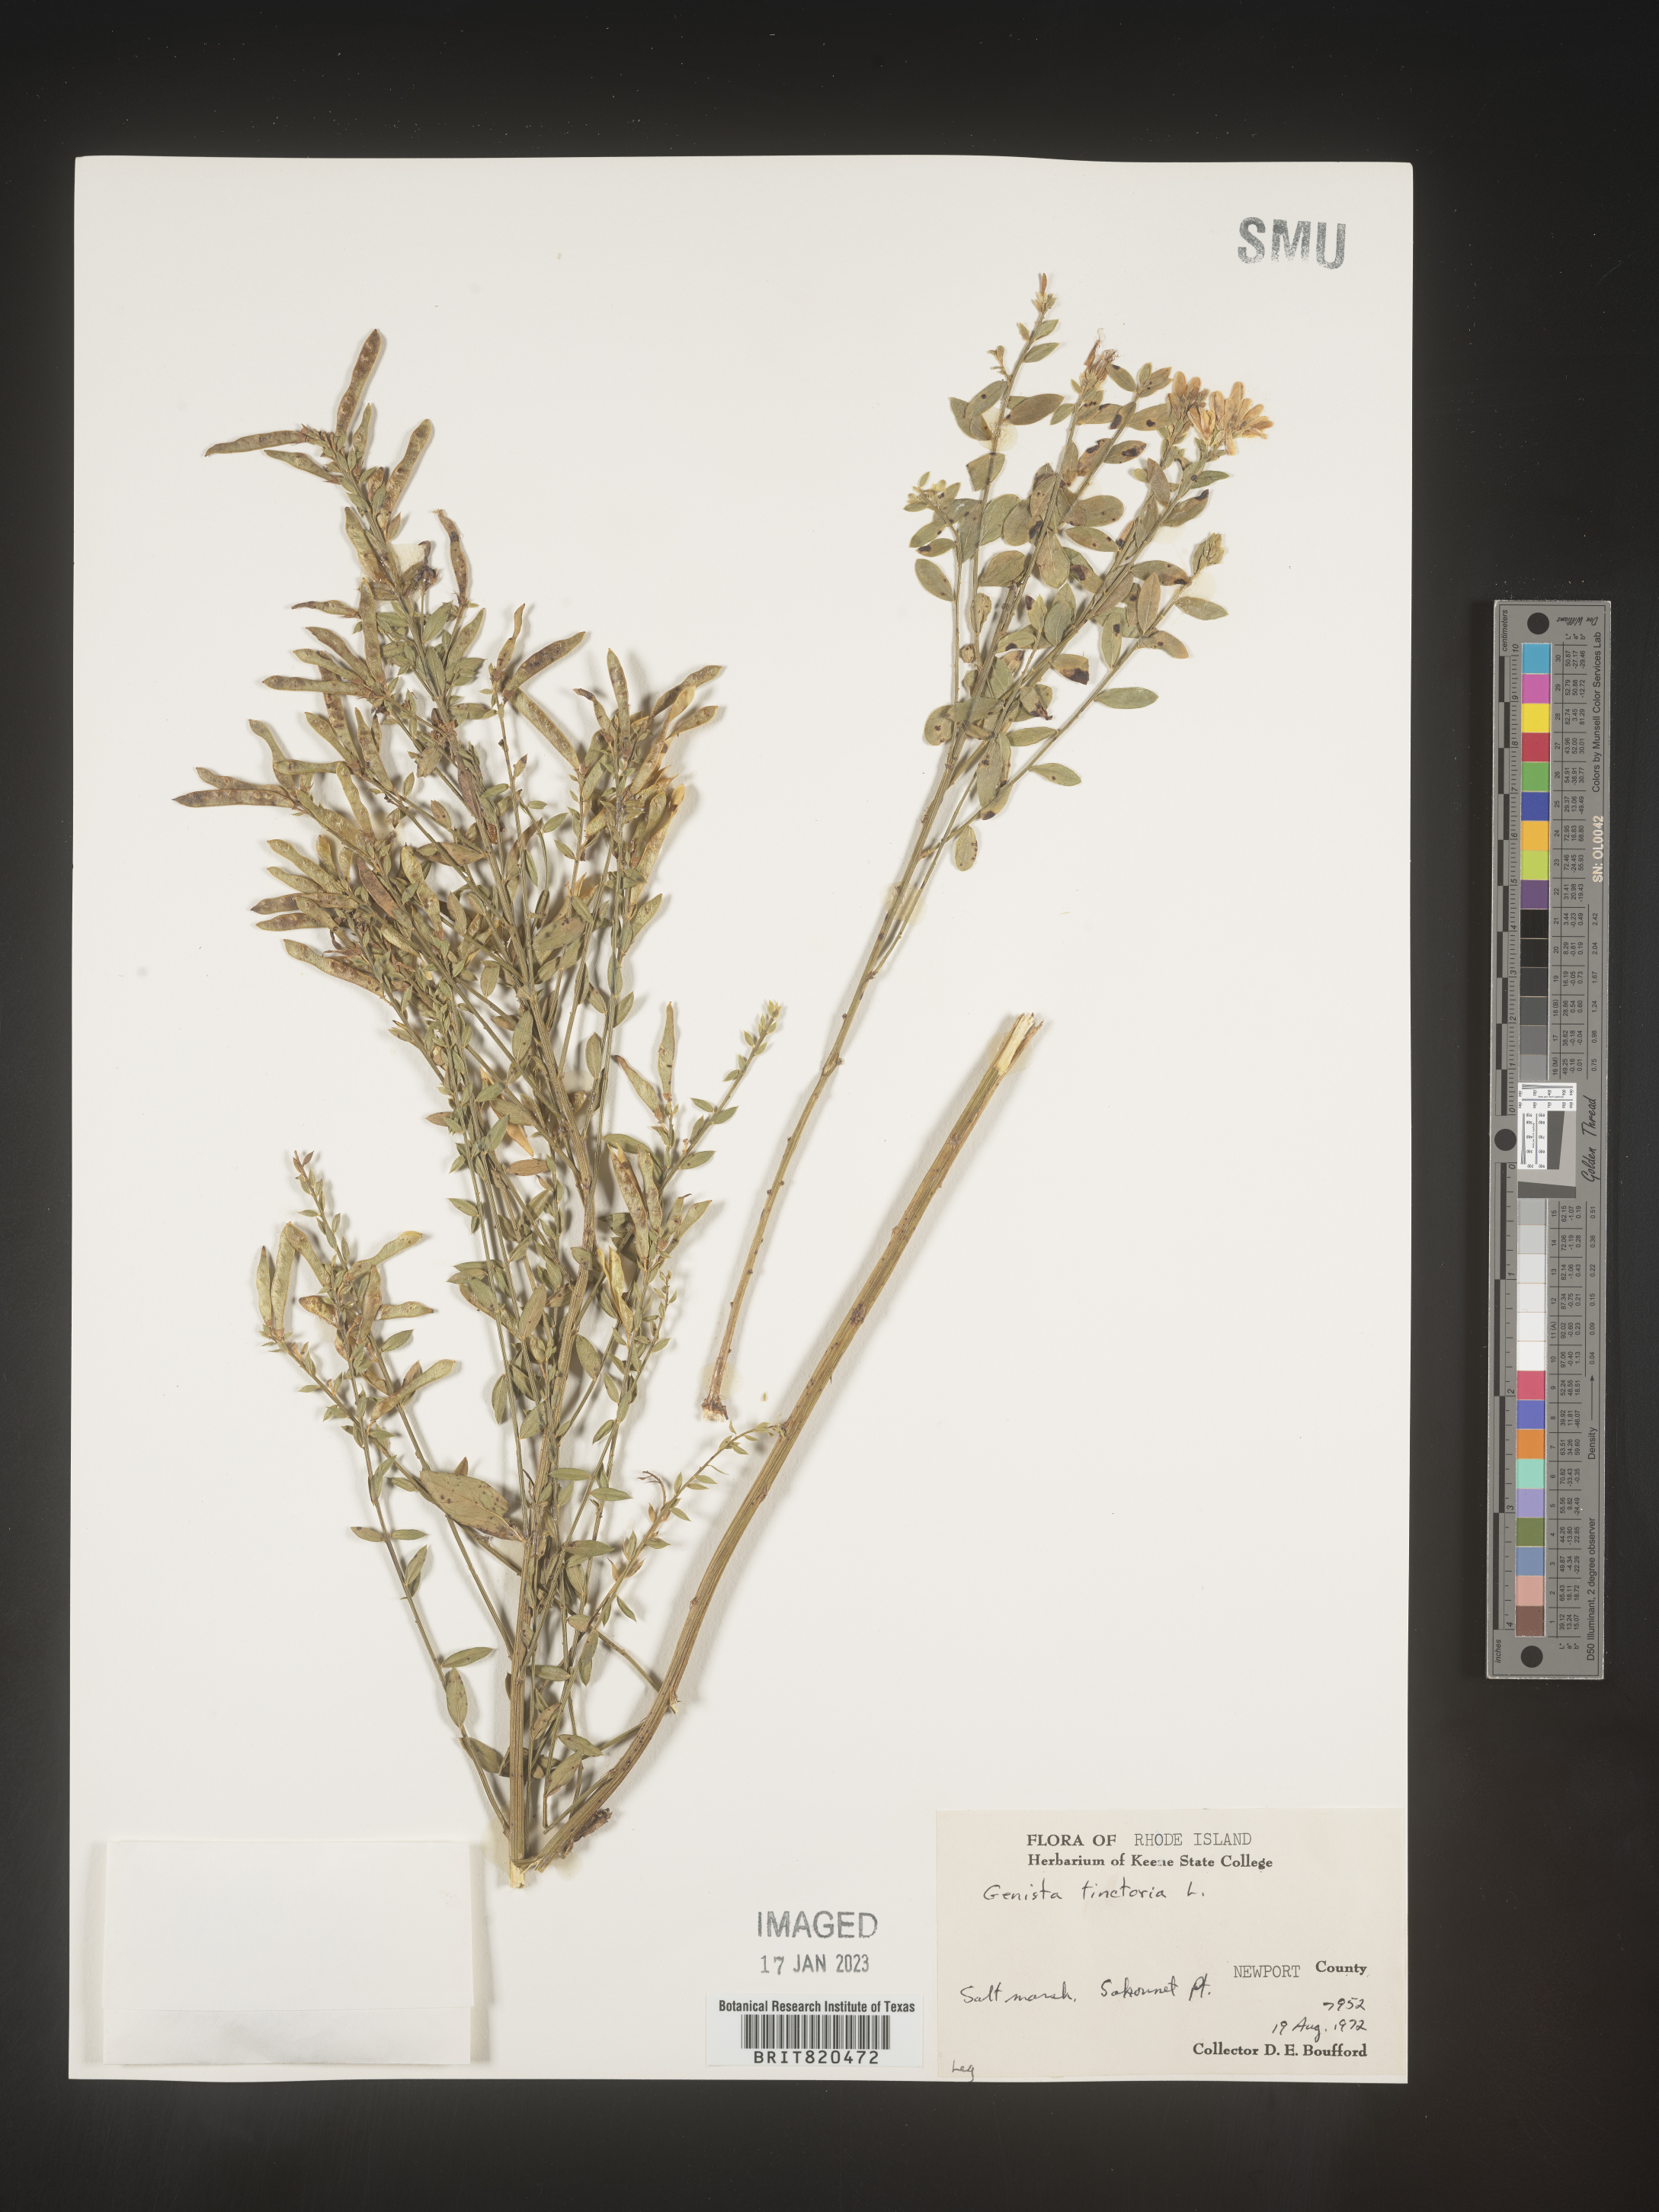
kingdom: Plantae
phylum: Tracheophyta
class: Magnoliopsida
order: Fabales
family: Fabaceae
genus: Genista
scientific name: Genista
